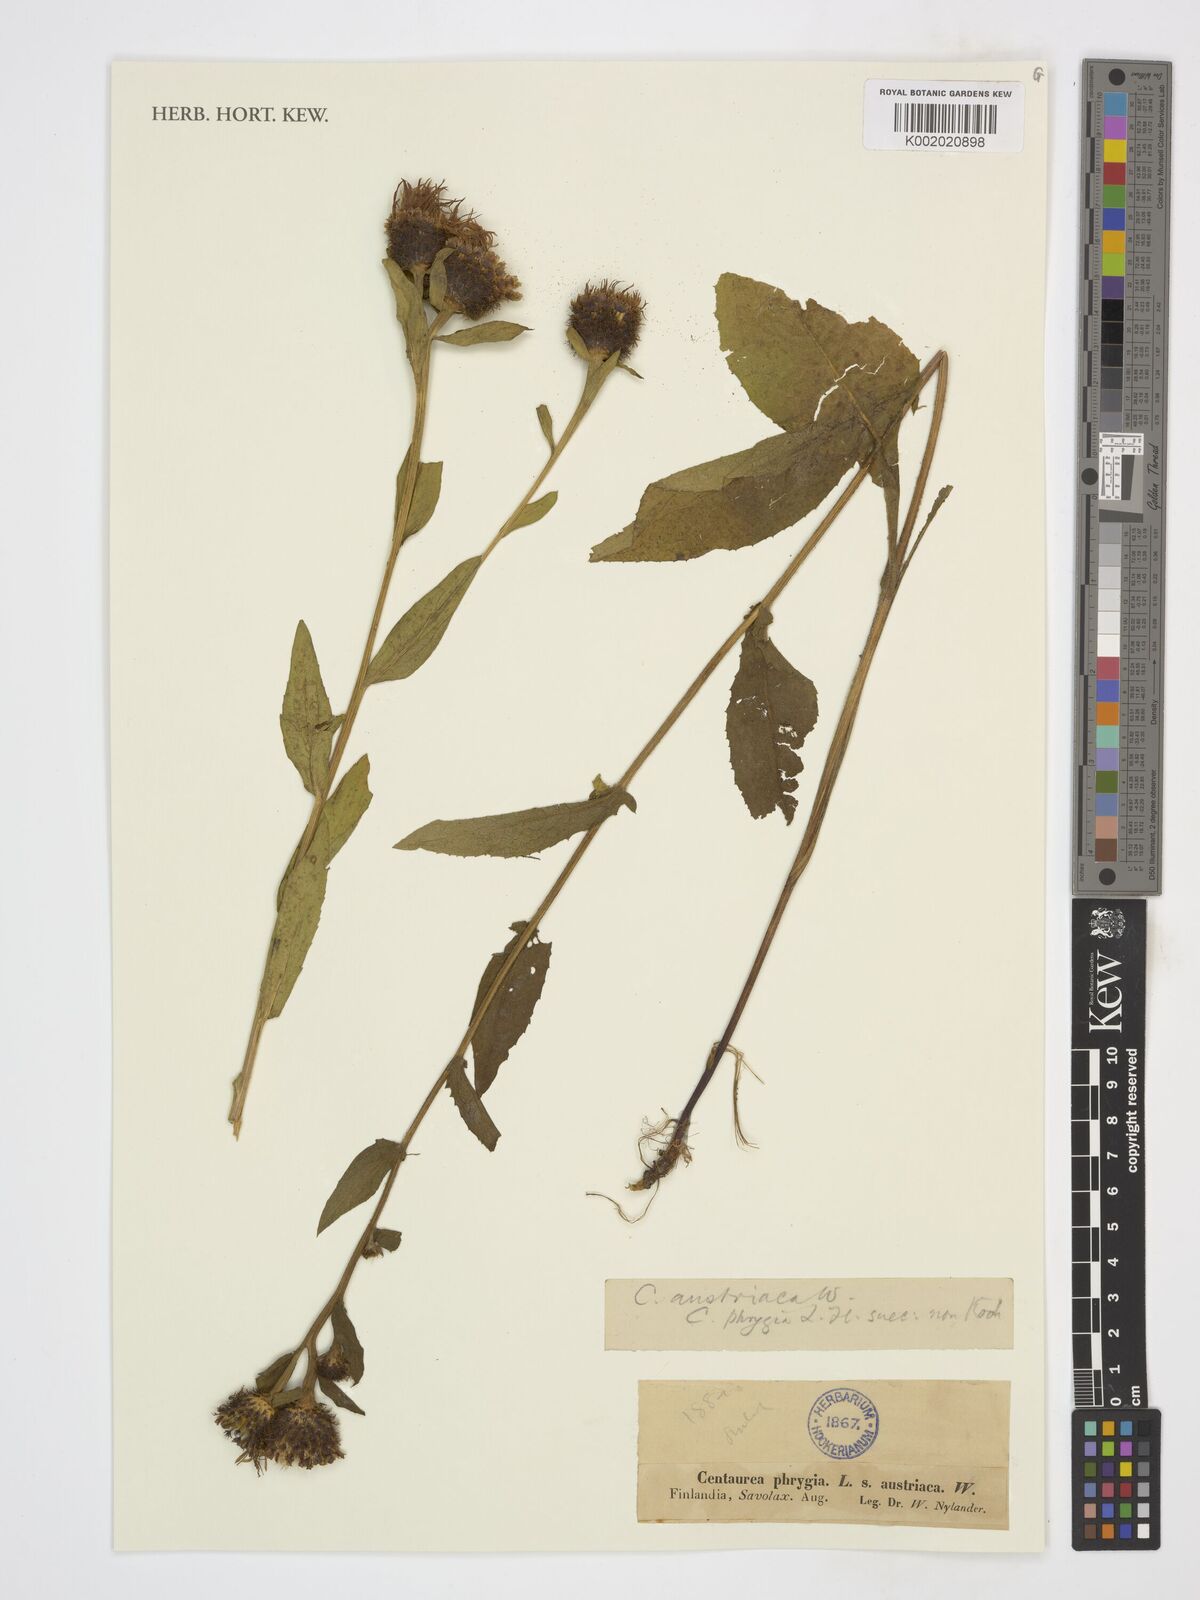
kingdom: Plantae
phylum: Tracheophyta
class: Magnoliopsida
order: Asterales
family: Asteraceae
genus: Centaurea
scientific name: Centaurea phrygia
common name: Wig knapweed
